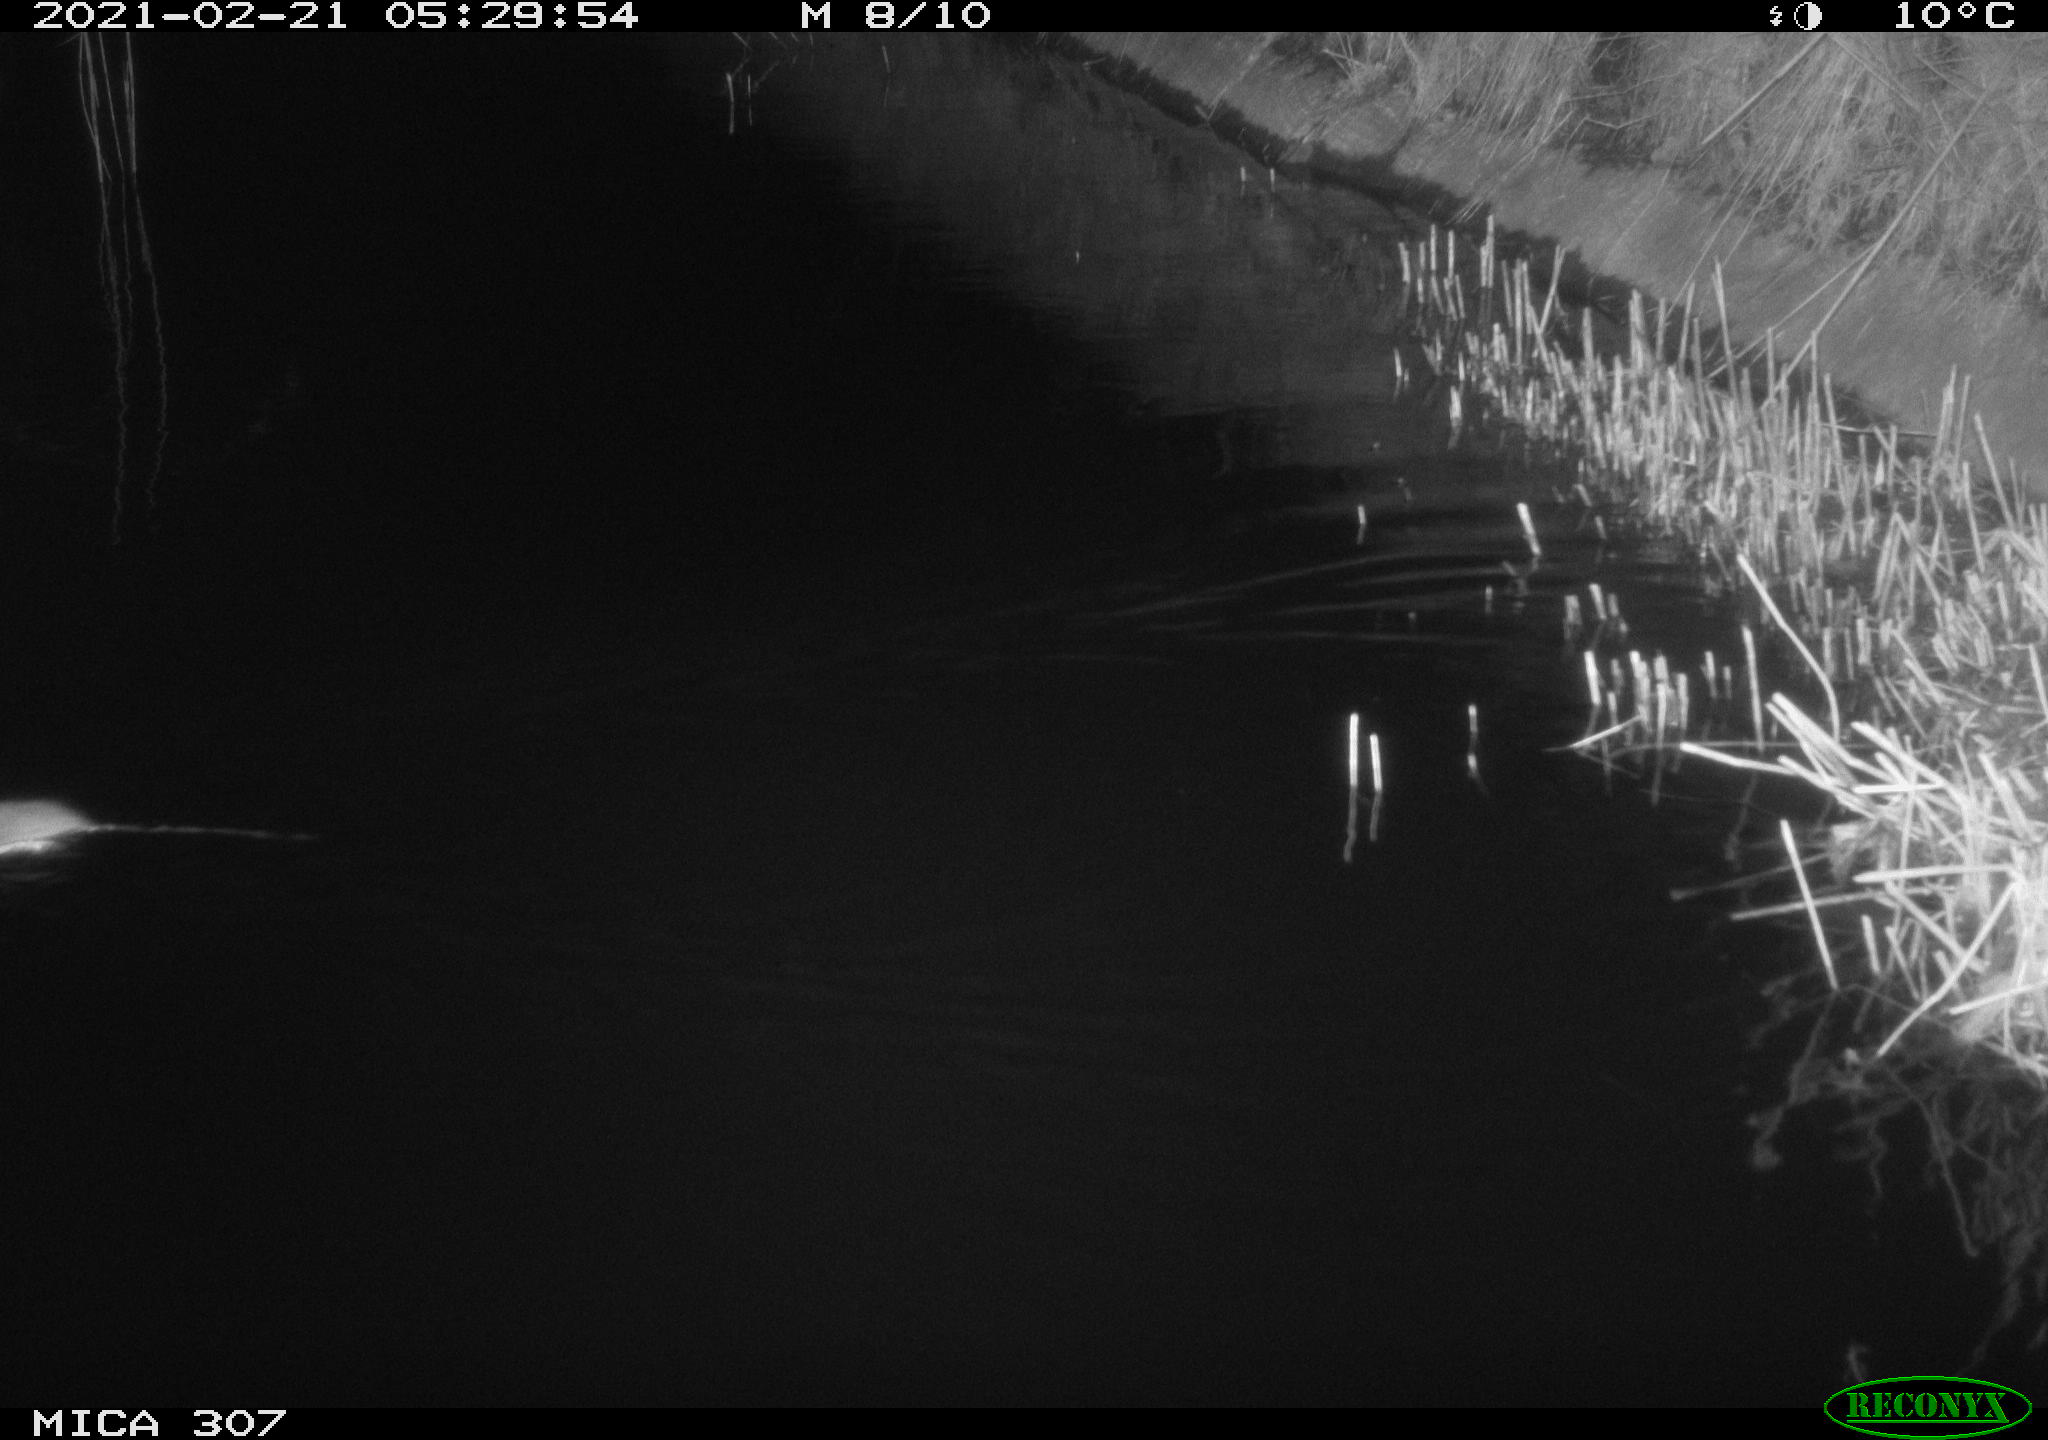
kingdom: Animalia
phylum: Chordata
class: Mammalia
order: Rodentia
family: Muridae
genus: Rattus
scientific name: Rattus norvegicus
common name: Brown rat
